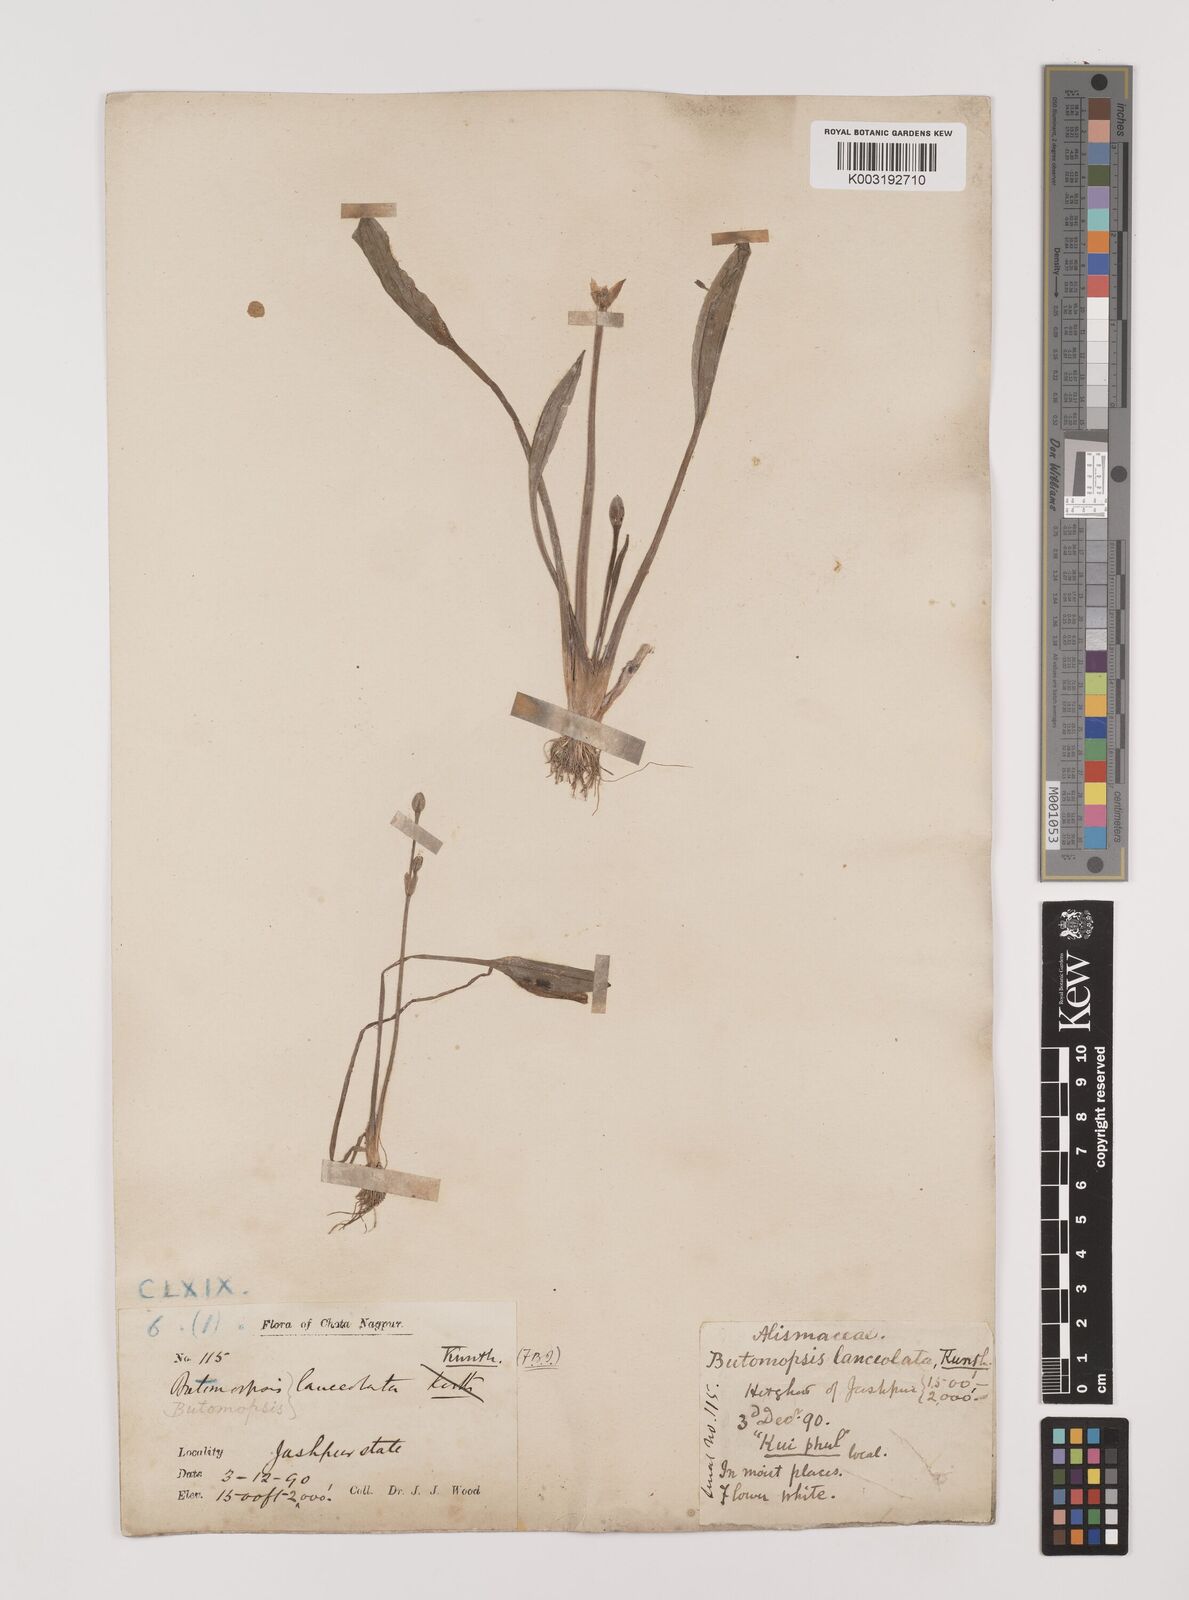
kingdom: Plantae
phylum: Tracheophyta
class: Liliopsida
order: Alismatales
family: Alismataceae
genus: Butomopsis
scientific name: Butomopsis latifolia
